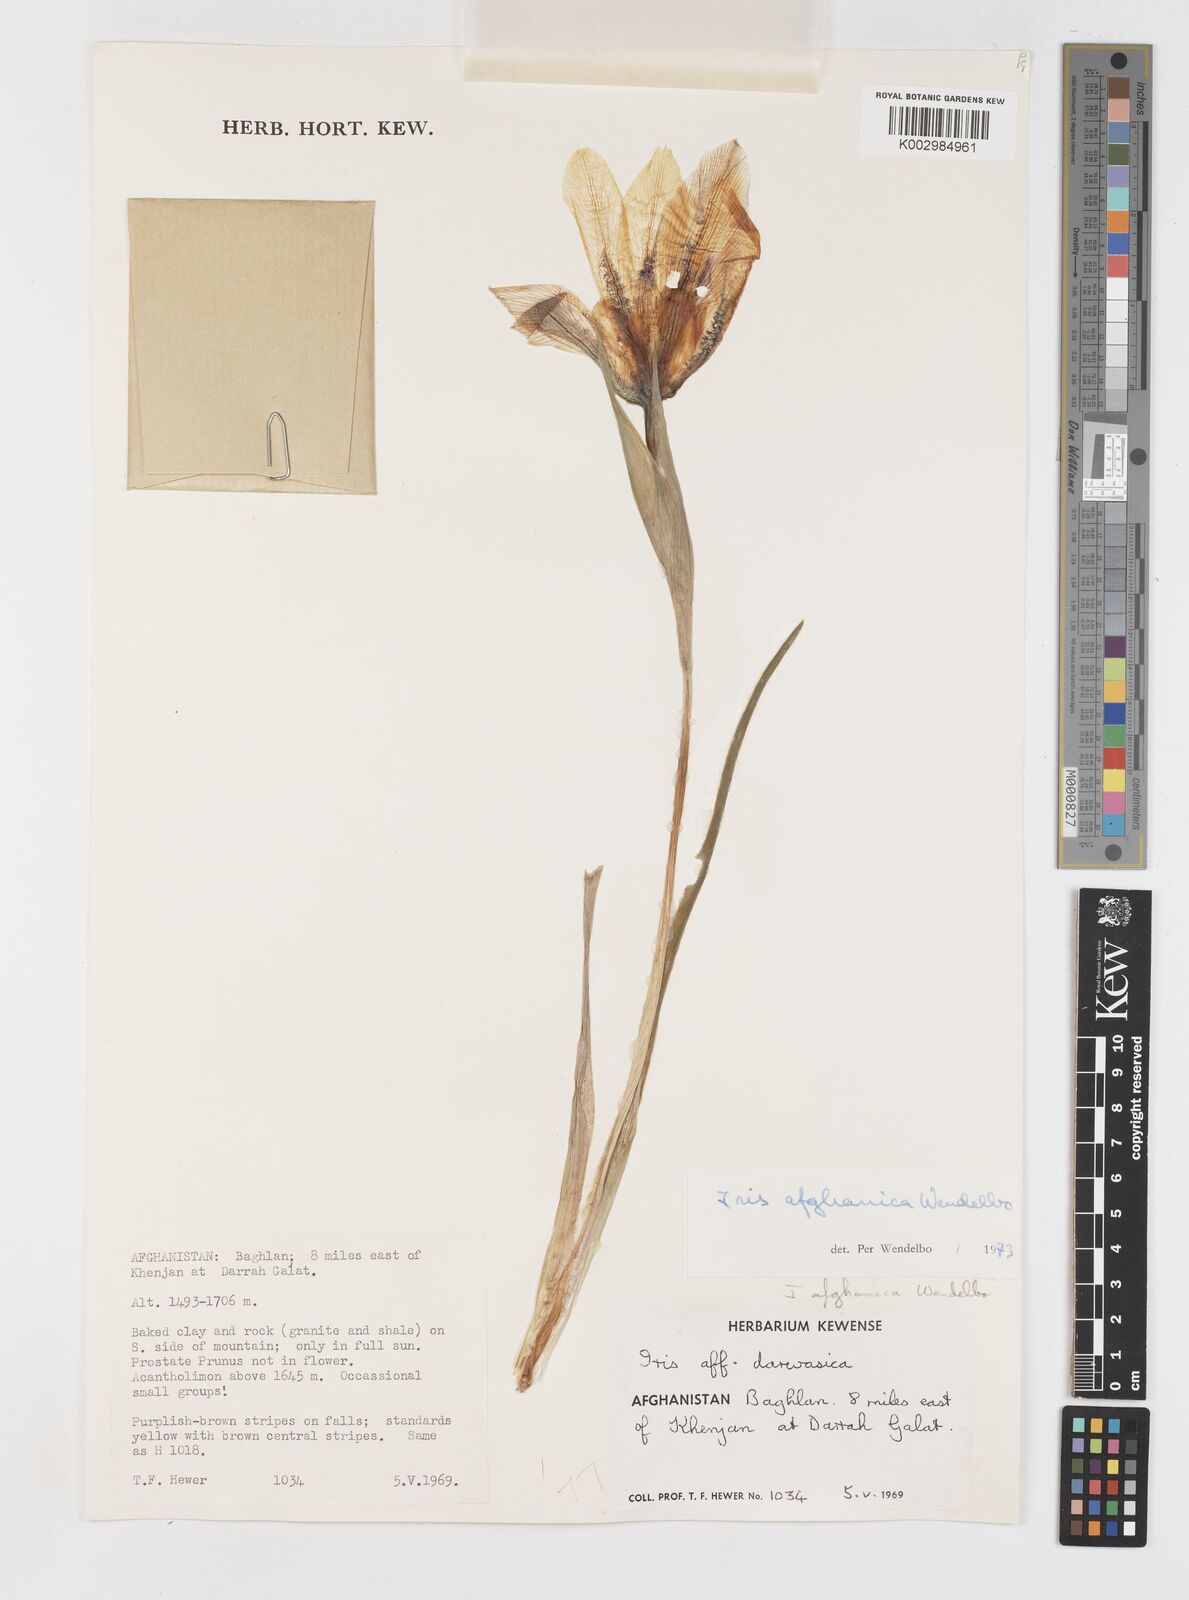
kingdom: Plantae
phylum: Tracheophyta
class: Liliopsida
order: Asparagales
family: Iridaceae
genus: Iris
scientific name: Iris afghanica
